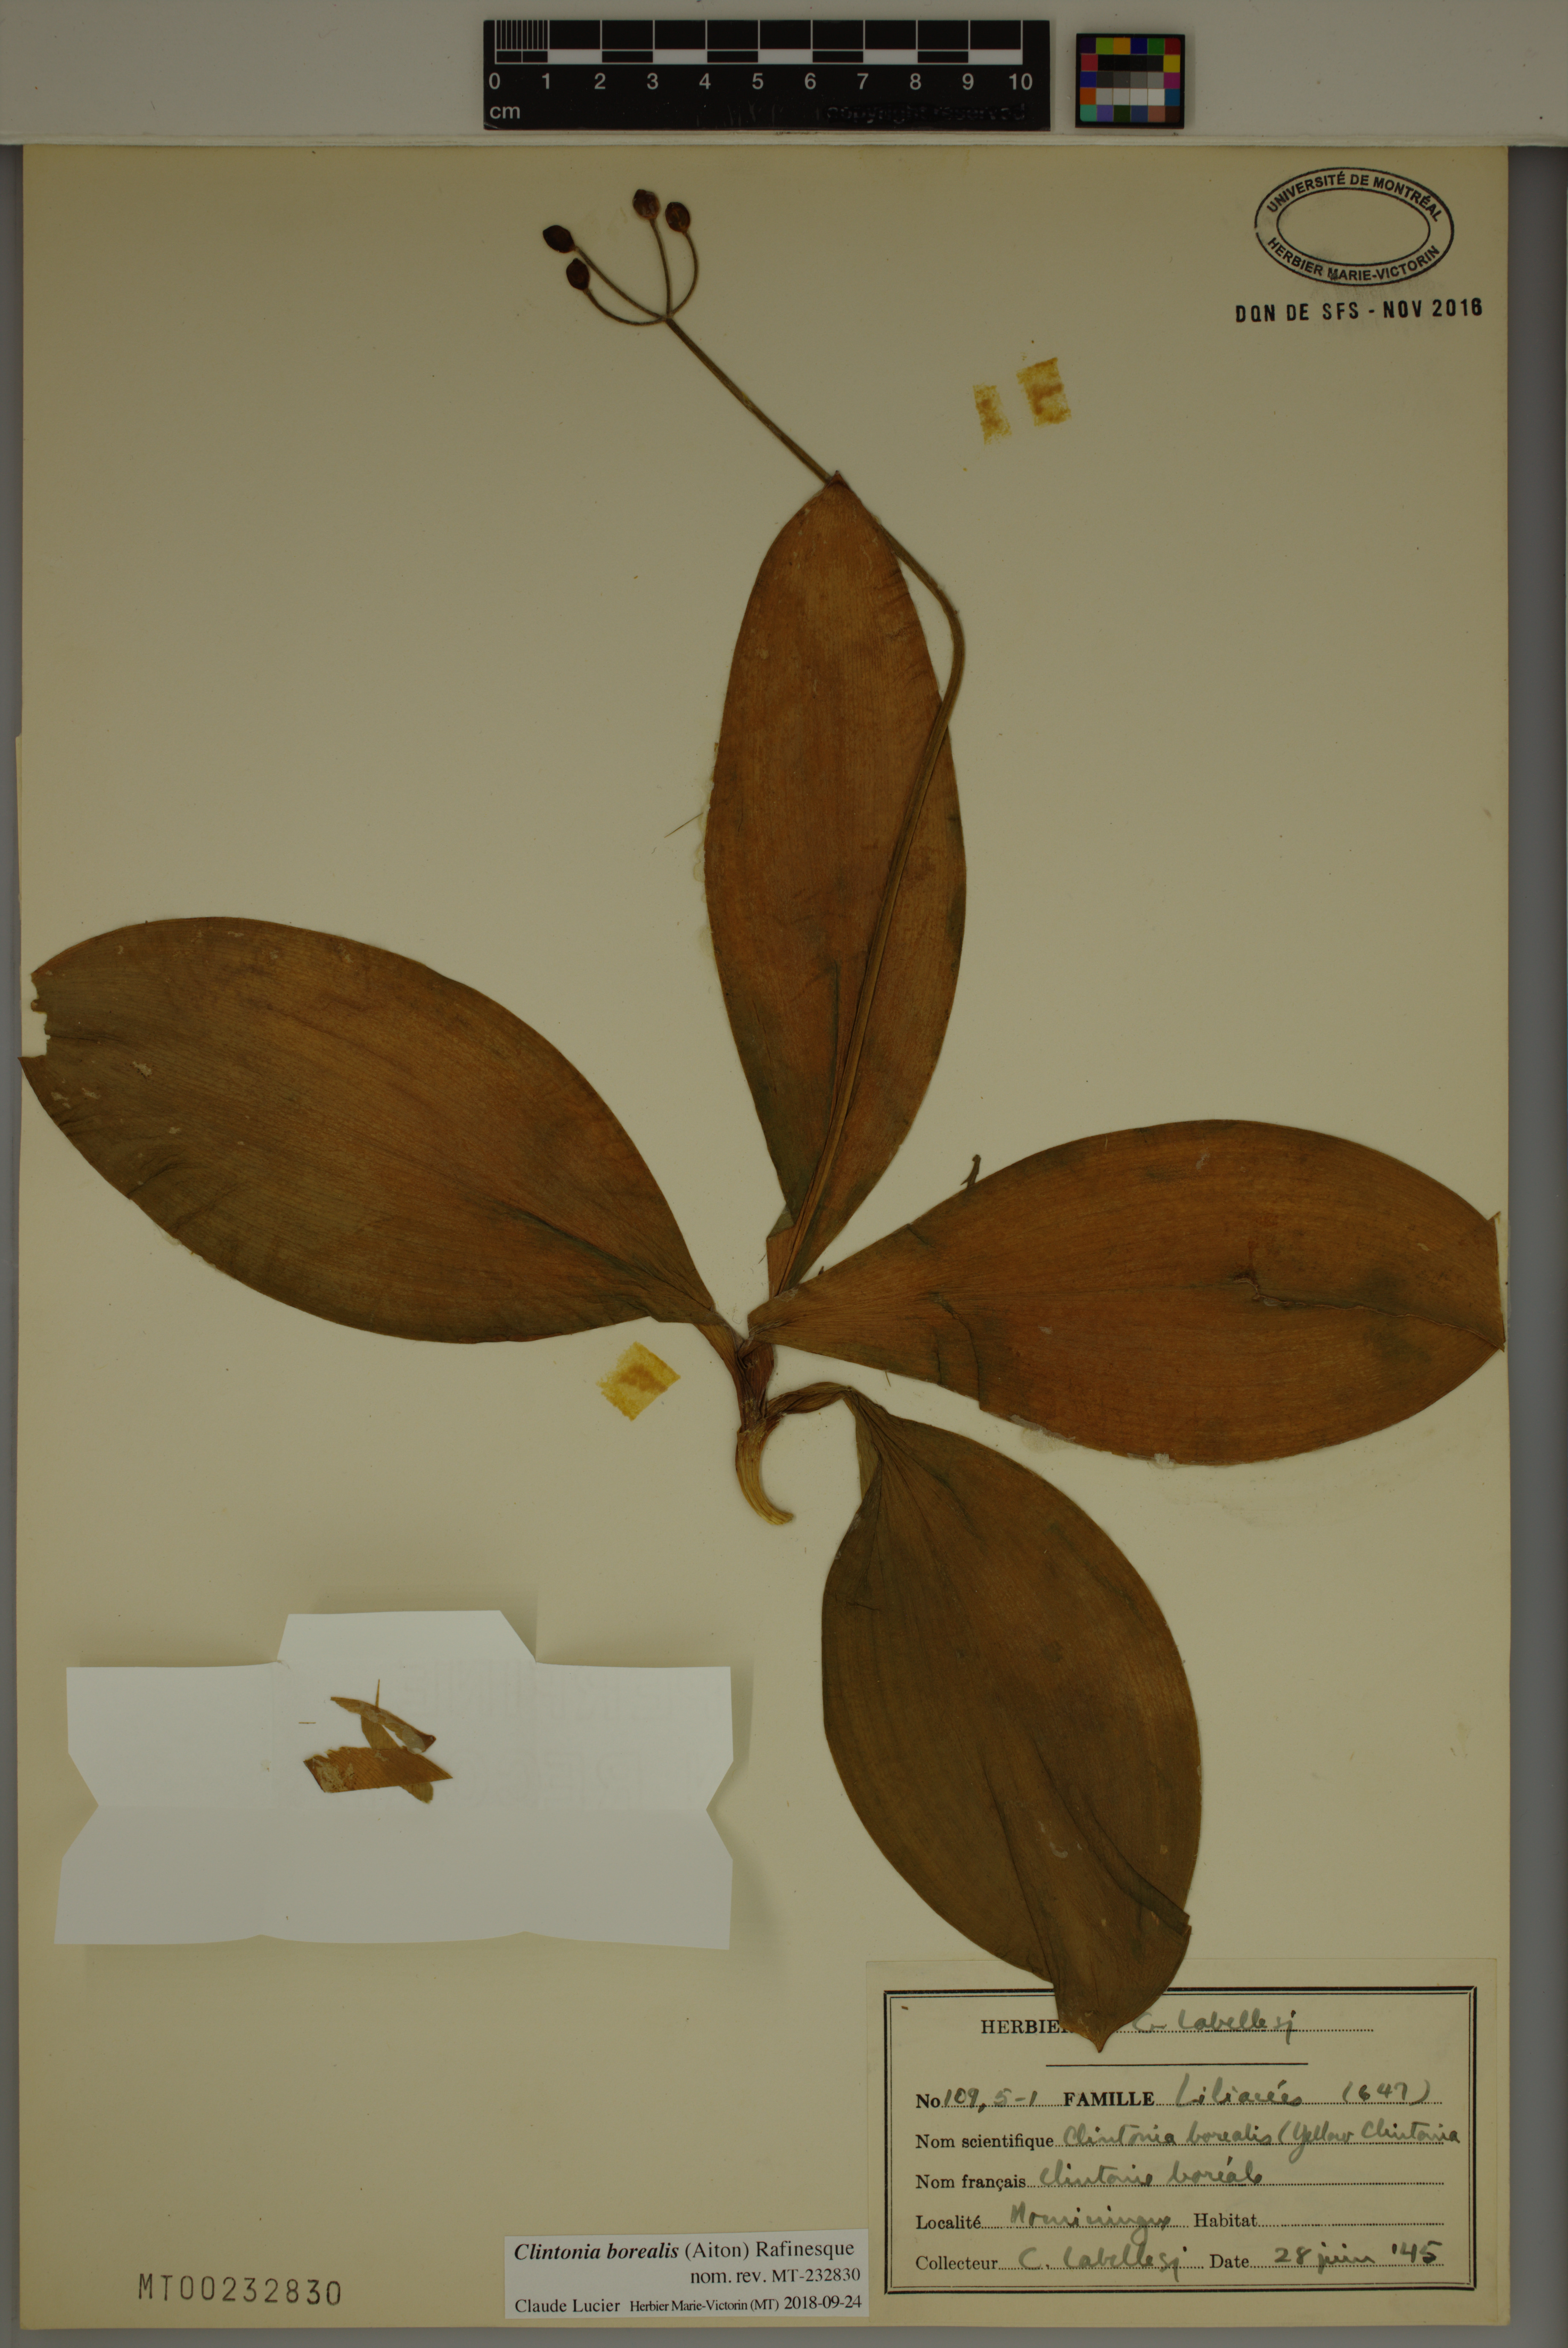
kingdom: Plantae
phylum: Tracheophyta
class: Liliopsida
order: Liliales
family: Liliaceae
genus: Clintonia
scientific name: Clintonia borealis
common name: Yellow clintonia
